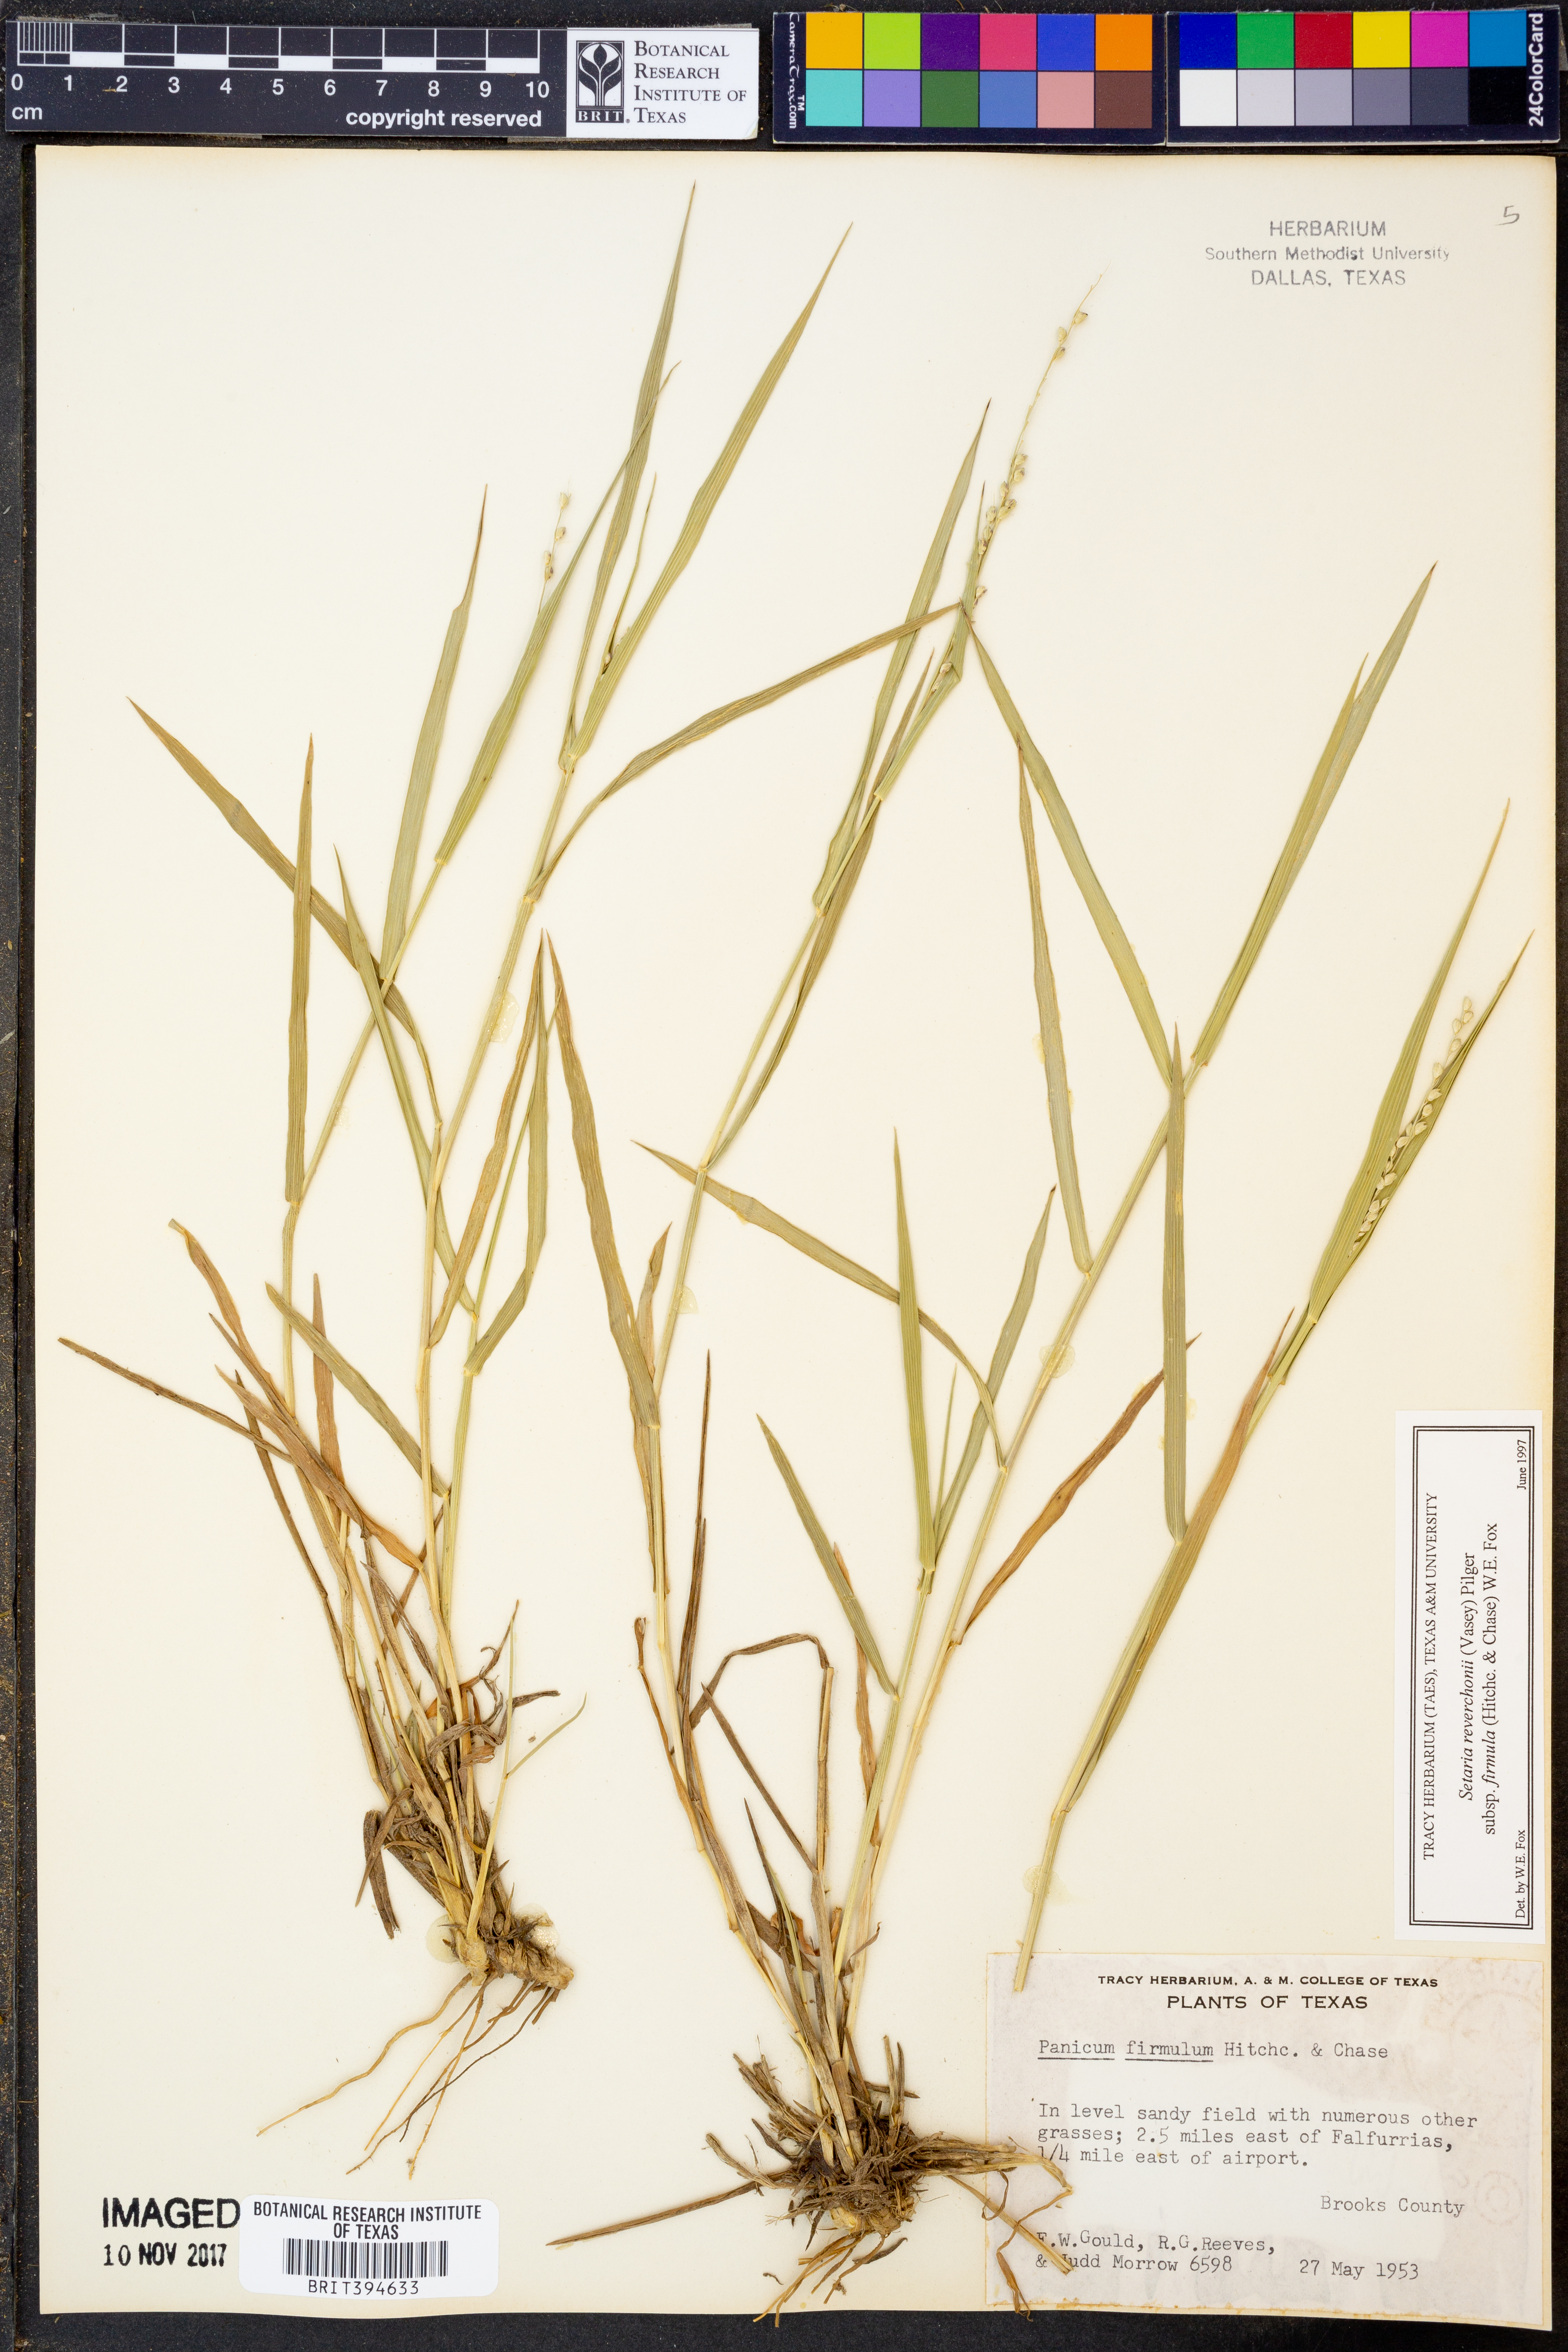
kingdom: Plantae
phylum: Tracheophyta
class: Liliopsida
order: Poales
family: Poaceae
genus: Setaria
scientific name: Setaria reverchonii
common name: Reverchon's bristle grass
